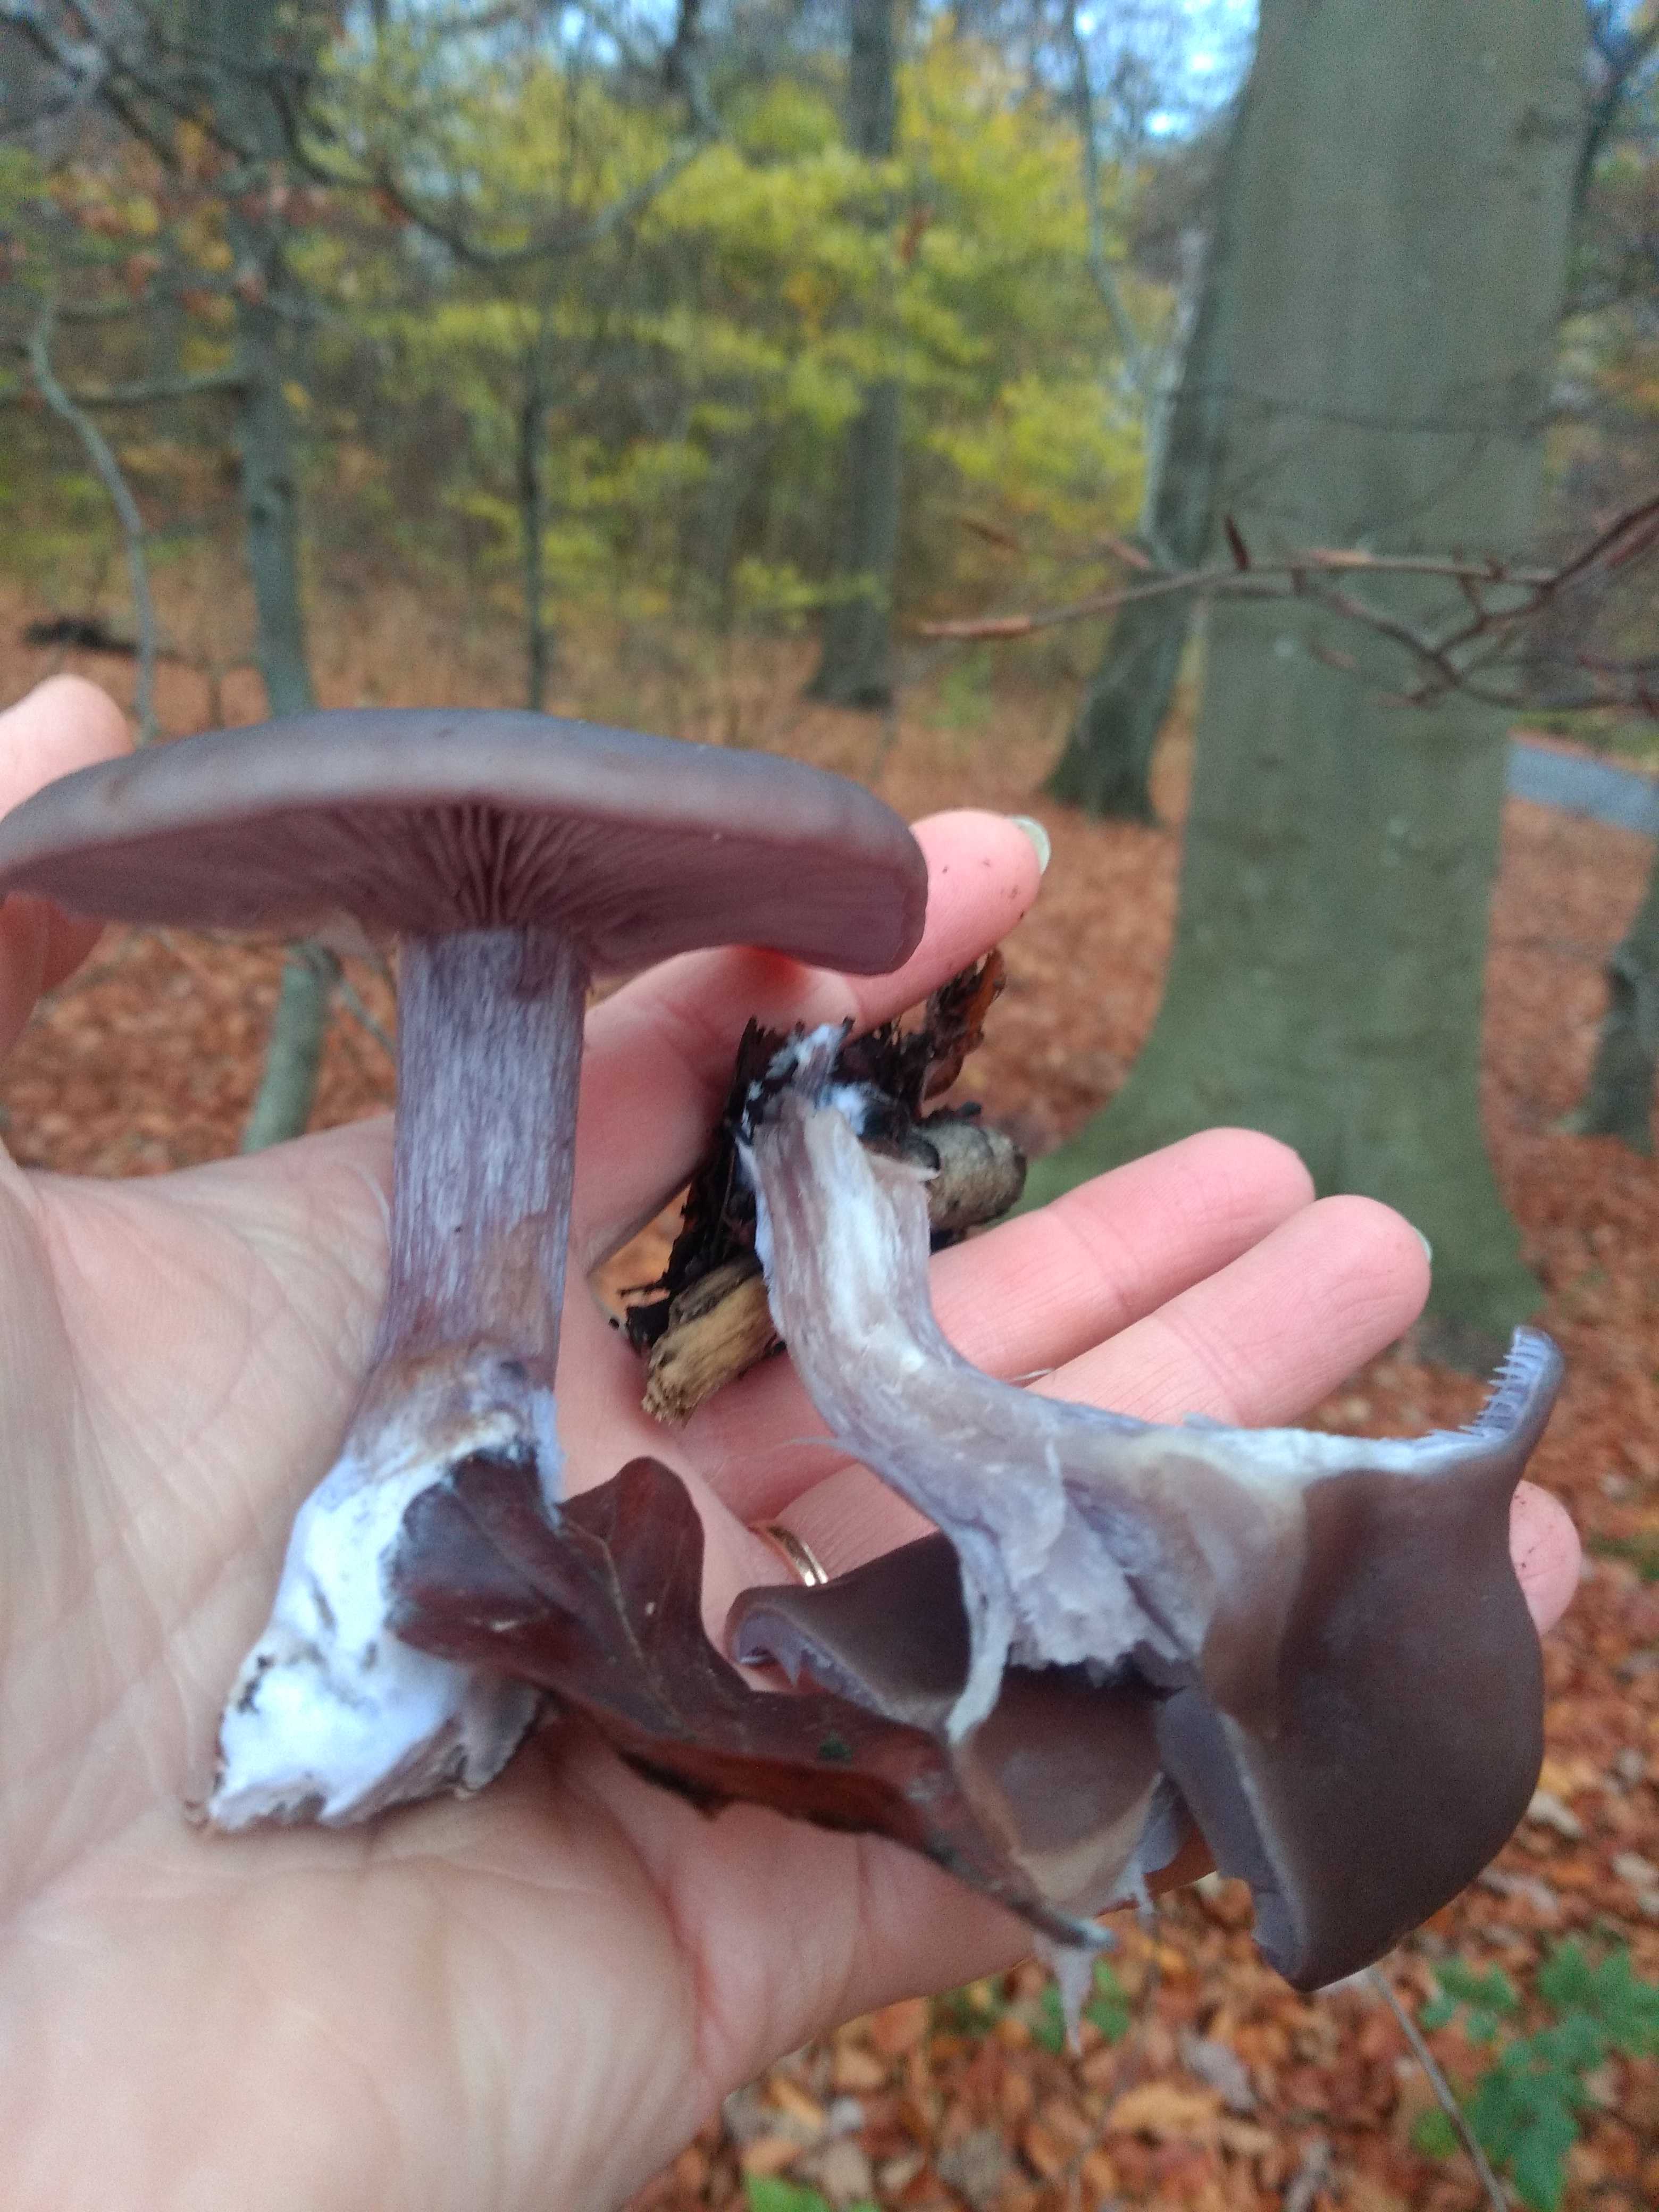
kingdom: Fungi
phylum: Basidiomycota
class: Agaricomycetes
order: Agaricales
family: Tricholomataceae
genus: Lepista
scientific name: Lepista nuda
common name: violet hekseringshat
